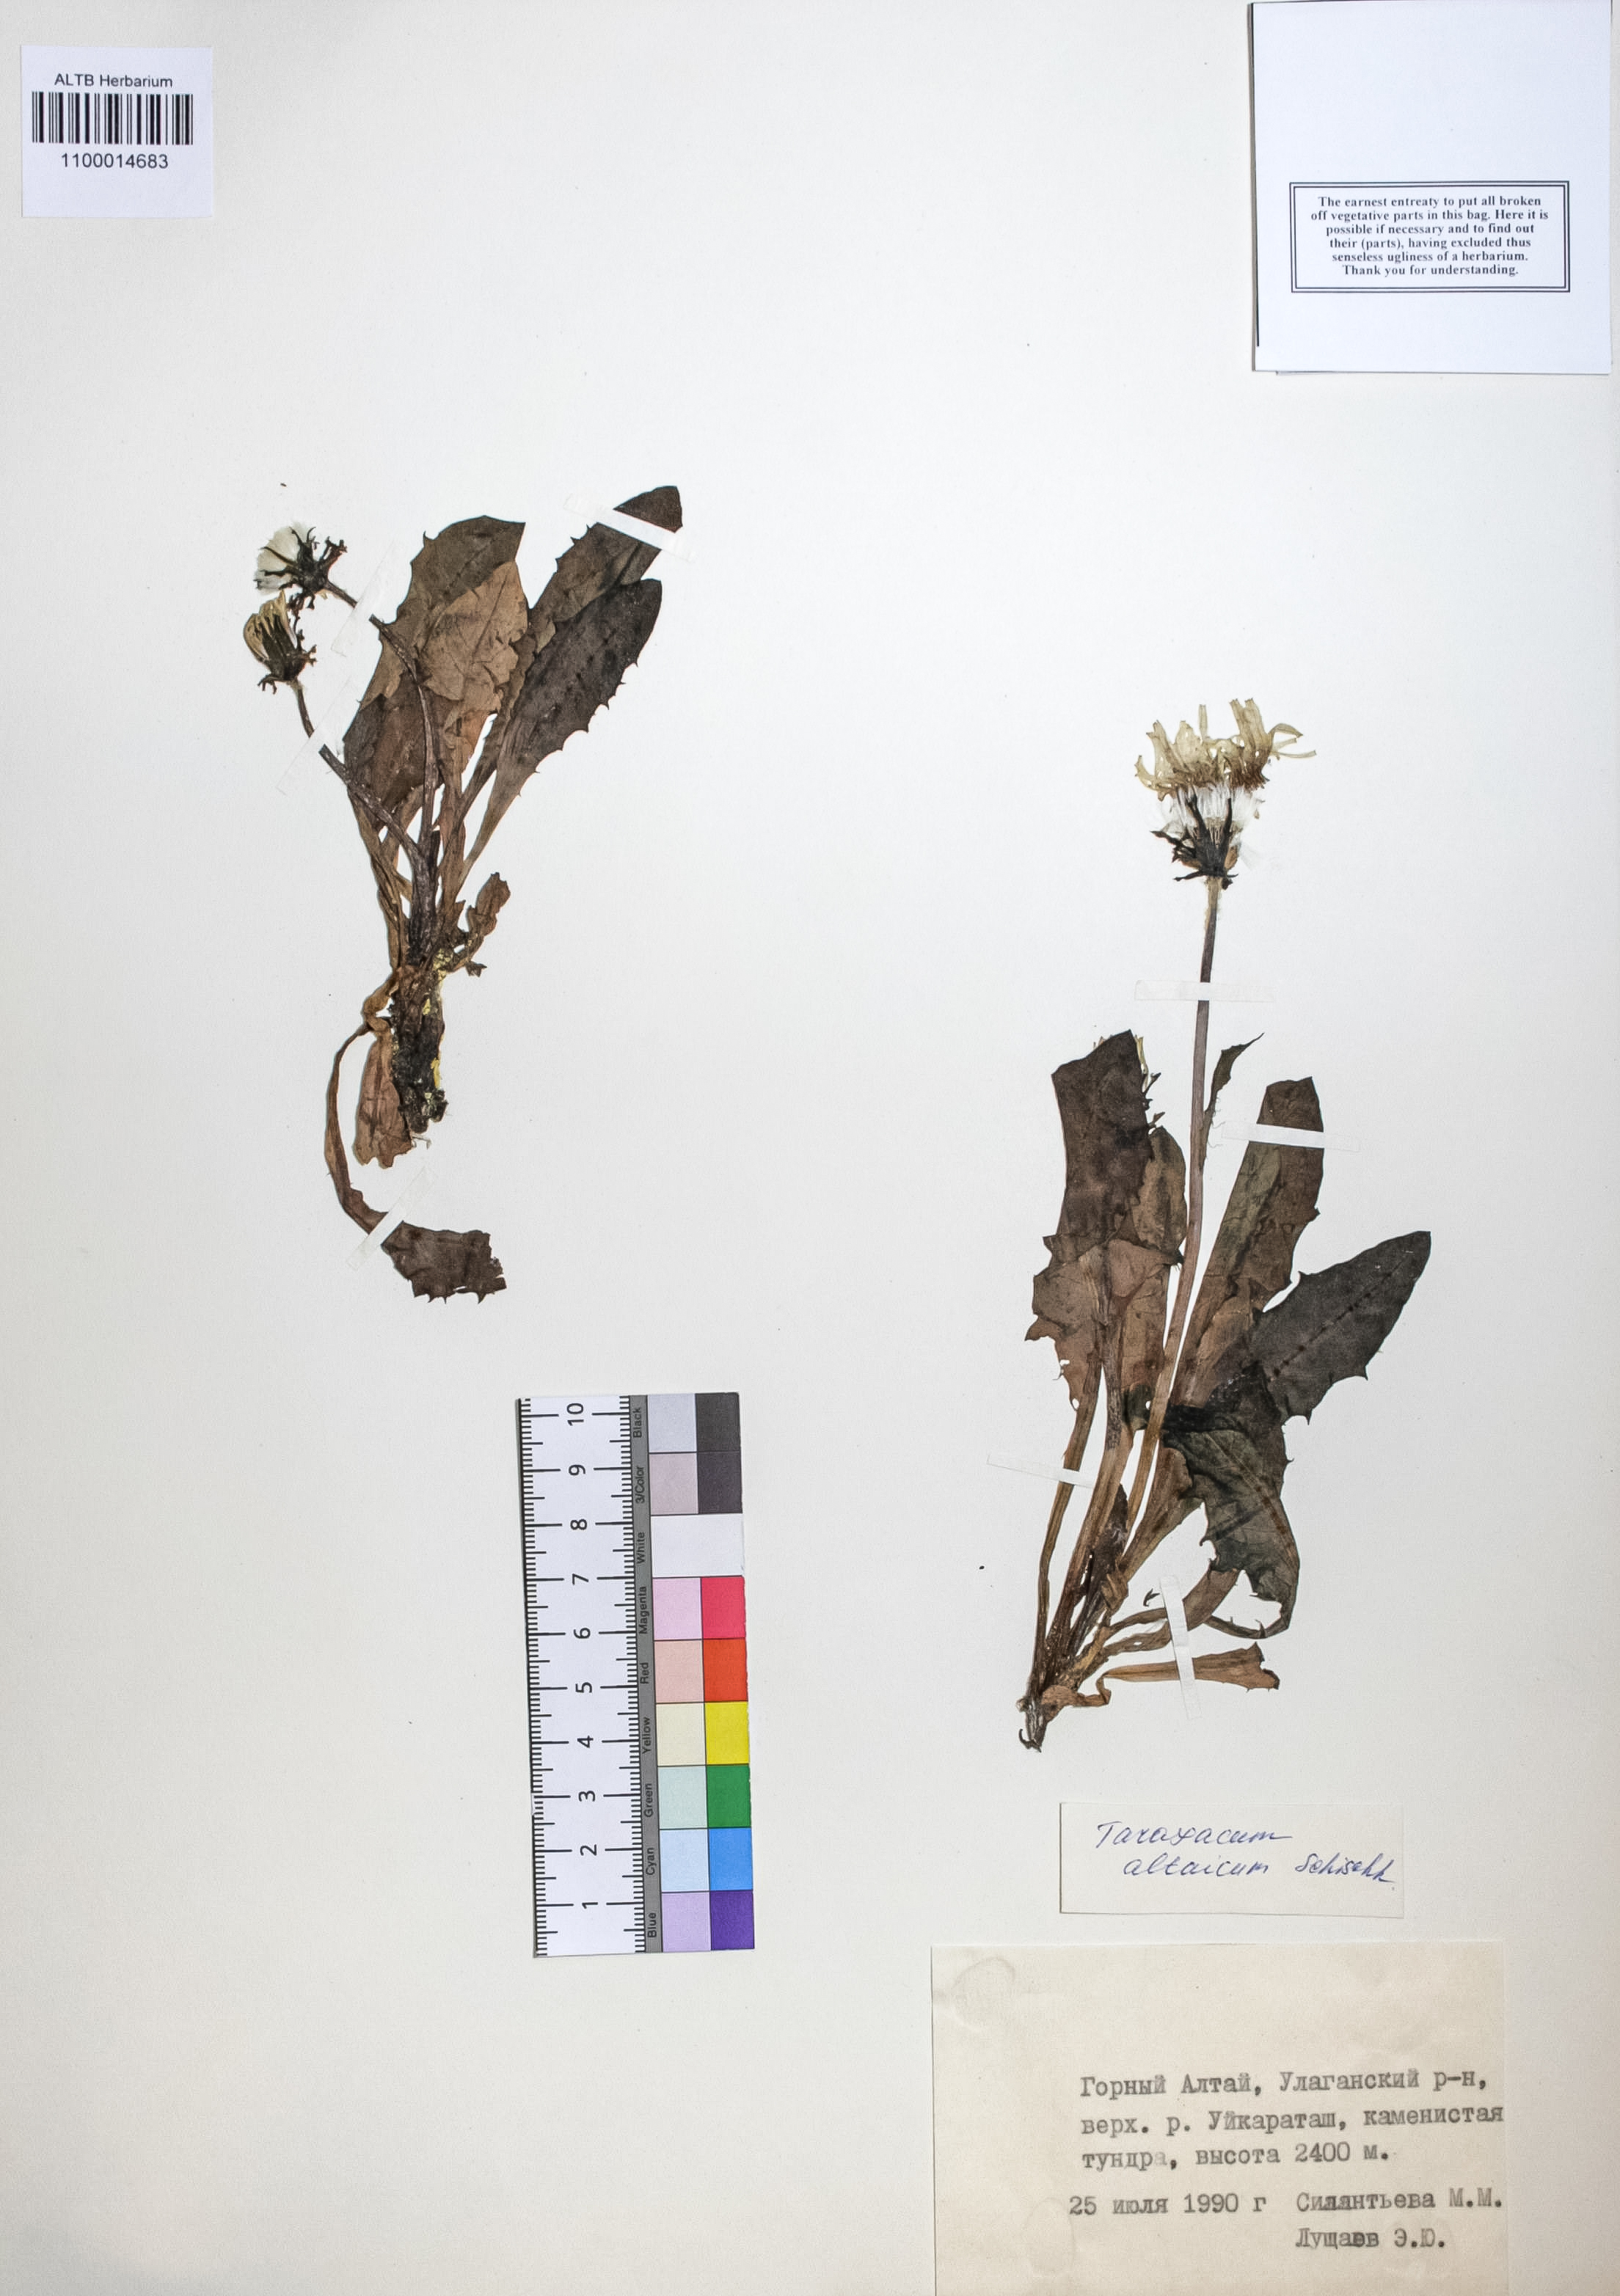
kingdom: Plantae
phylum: Tracheophyta
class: Magnoliopsida
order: Asterales
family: Asteraceae
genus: Taraxacum
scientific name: Taraxacum ceratophorum
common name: Horn-bearing dandelion
